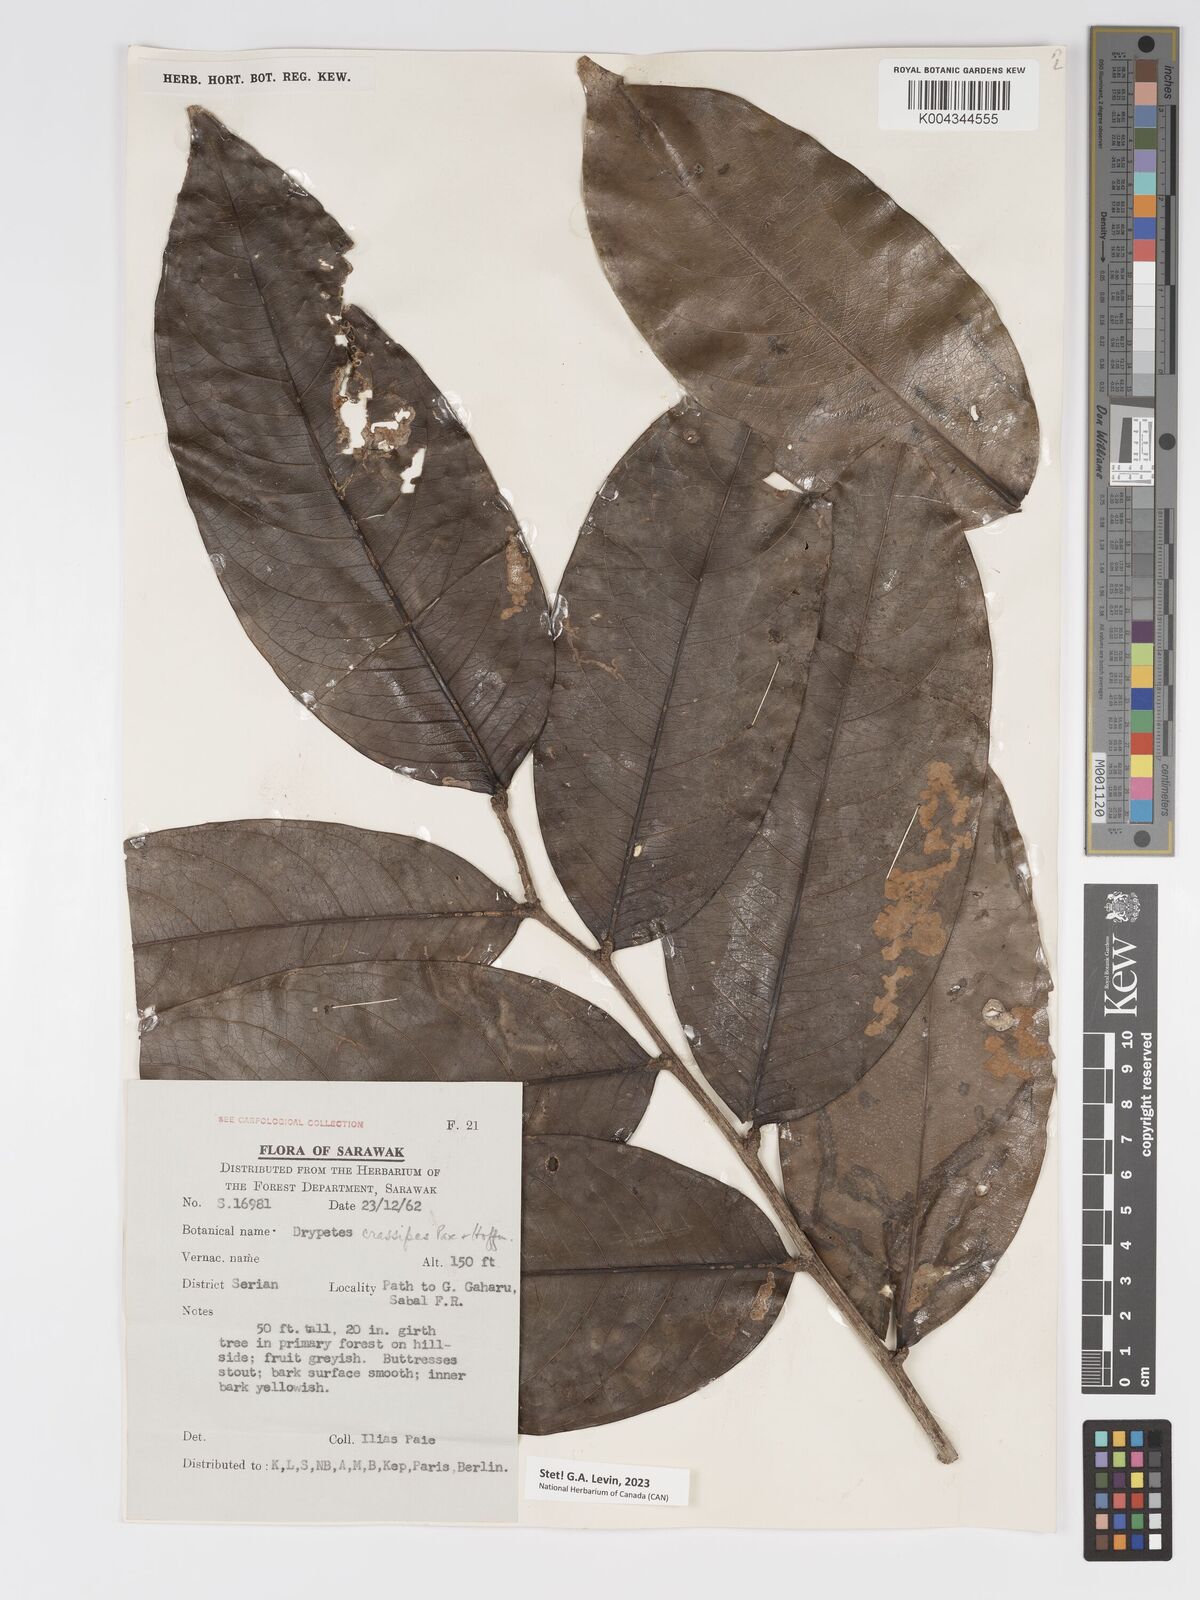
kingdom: Plantae
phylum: Tracheophyta
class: Magnoliopsida
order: Malpighiales
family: Putranjivaceae
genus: Drypetes
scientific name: Drypetes crassipes
